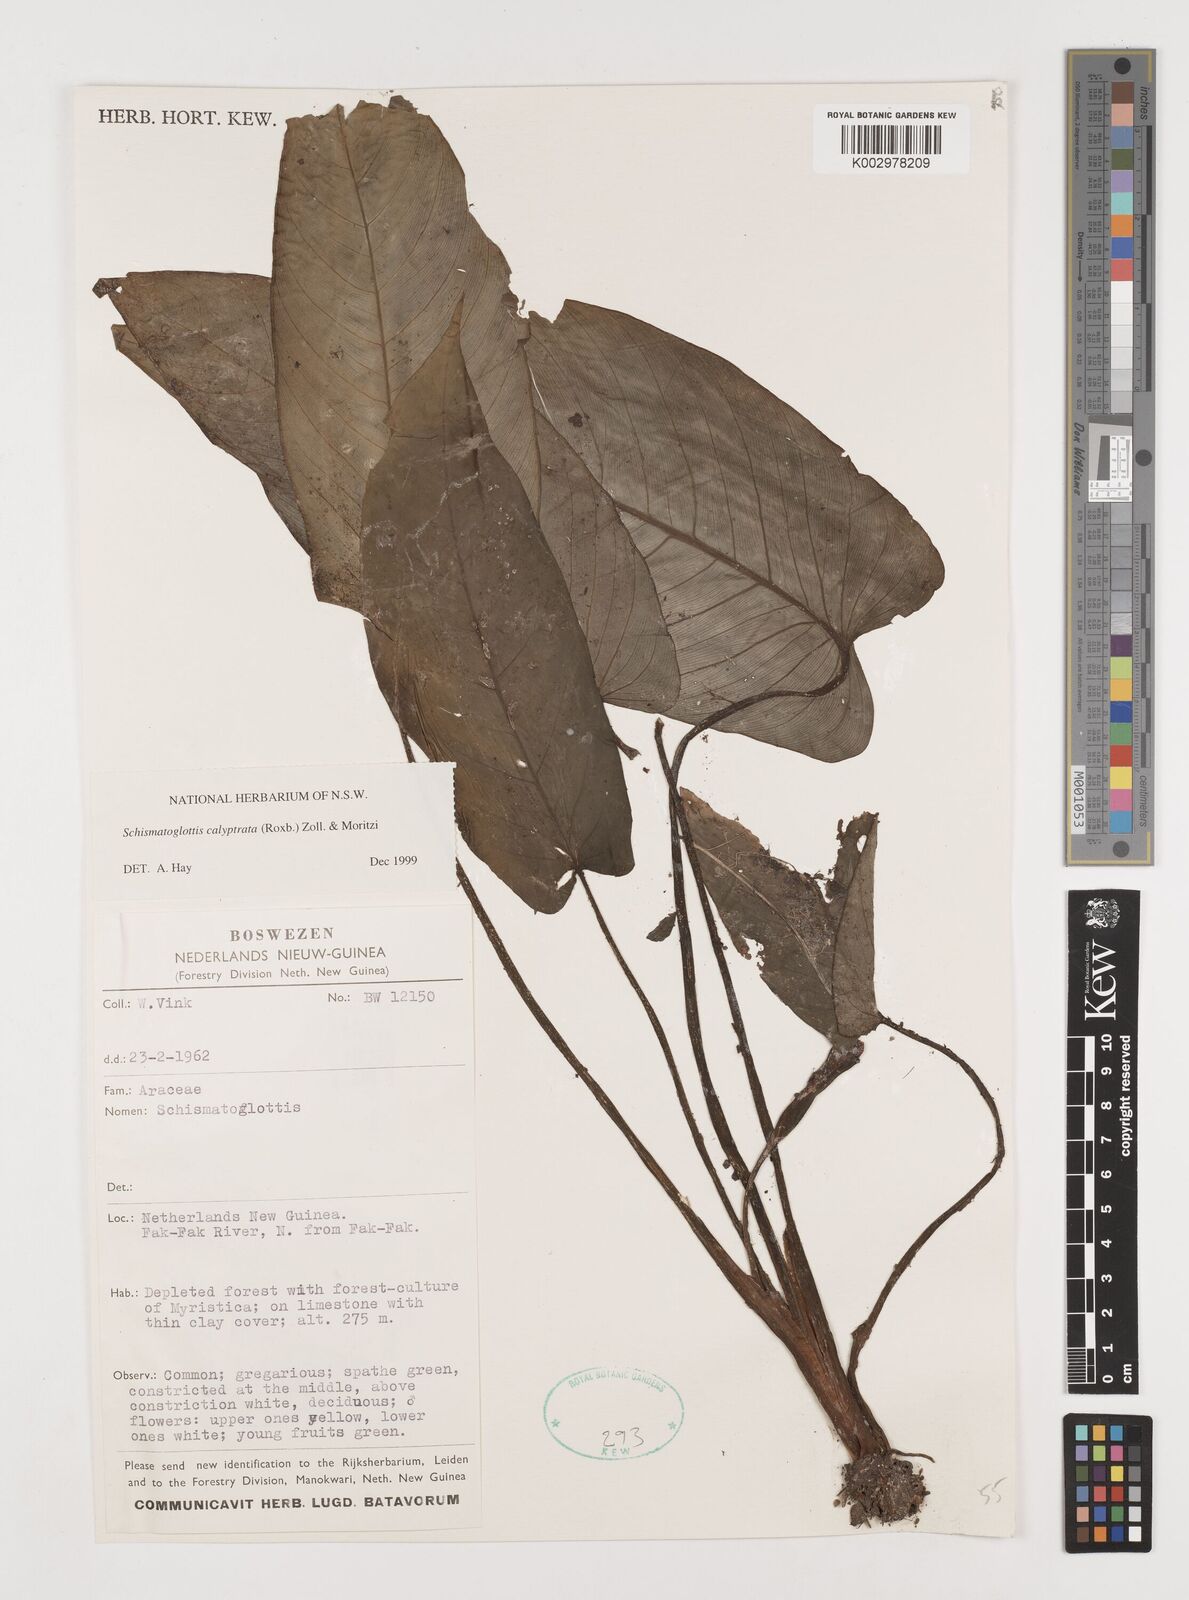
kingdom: Plantae
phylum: Tracheophyta
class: Liliopsida
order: Alismatales
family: Araceae
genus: Schismatoglottis
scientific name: Schismatoglottis calyptrata
